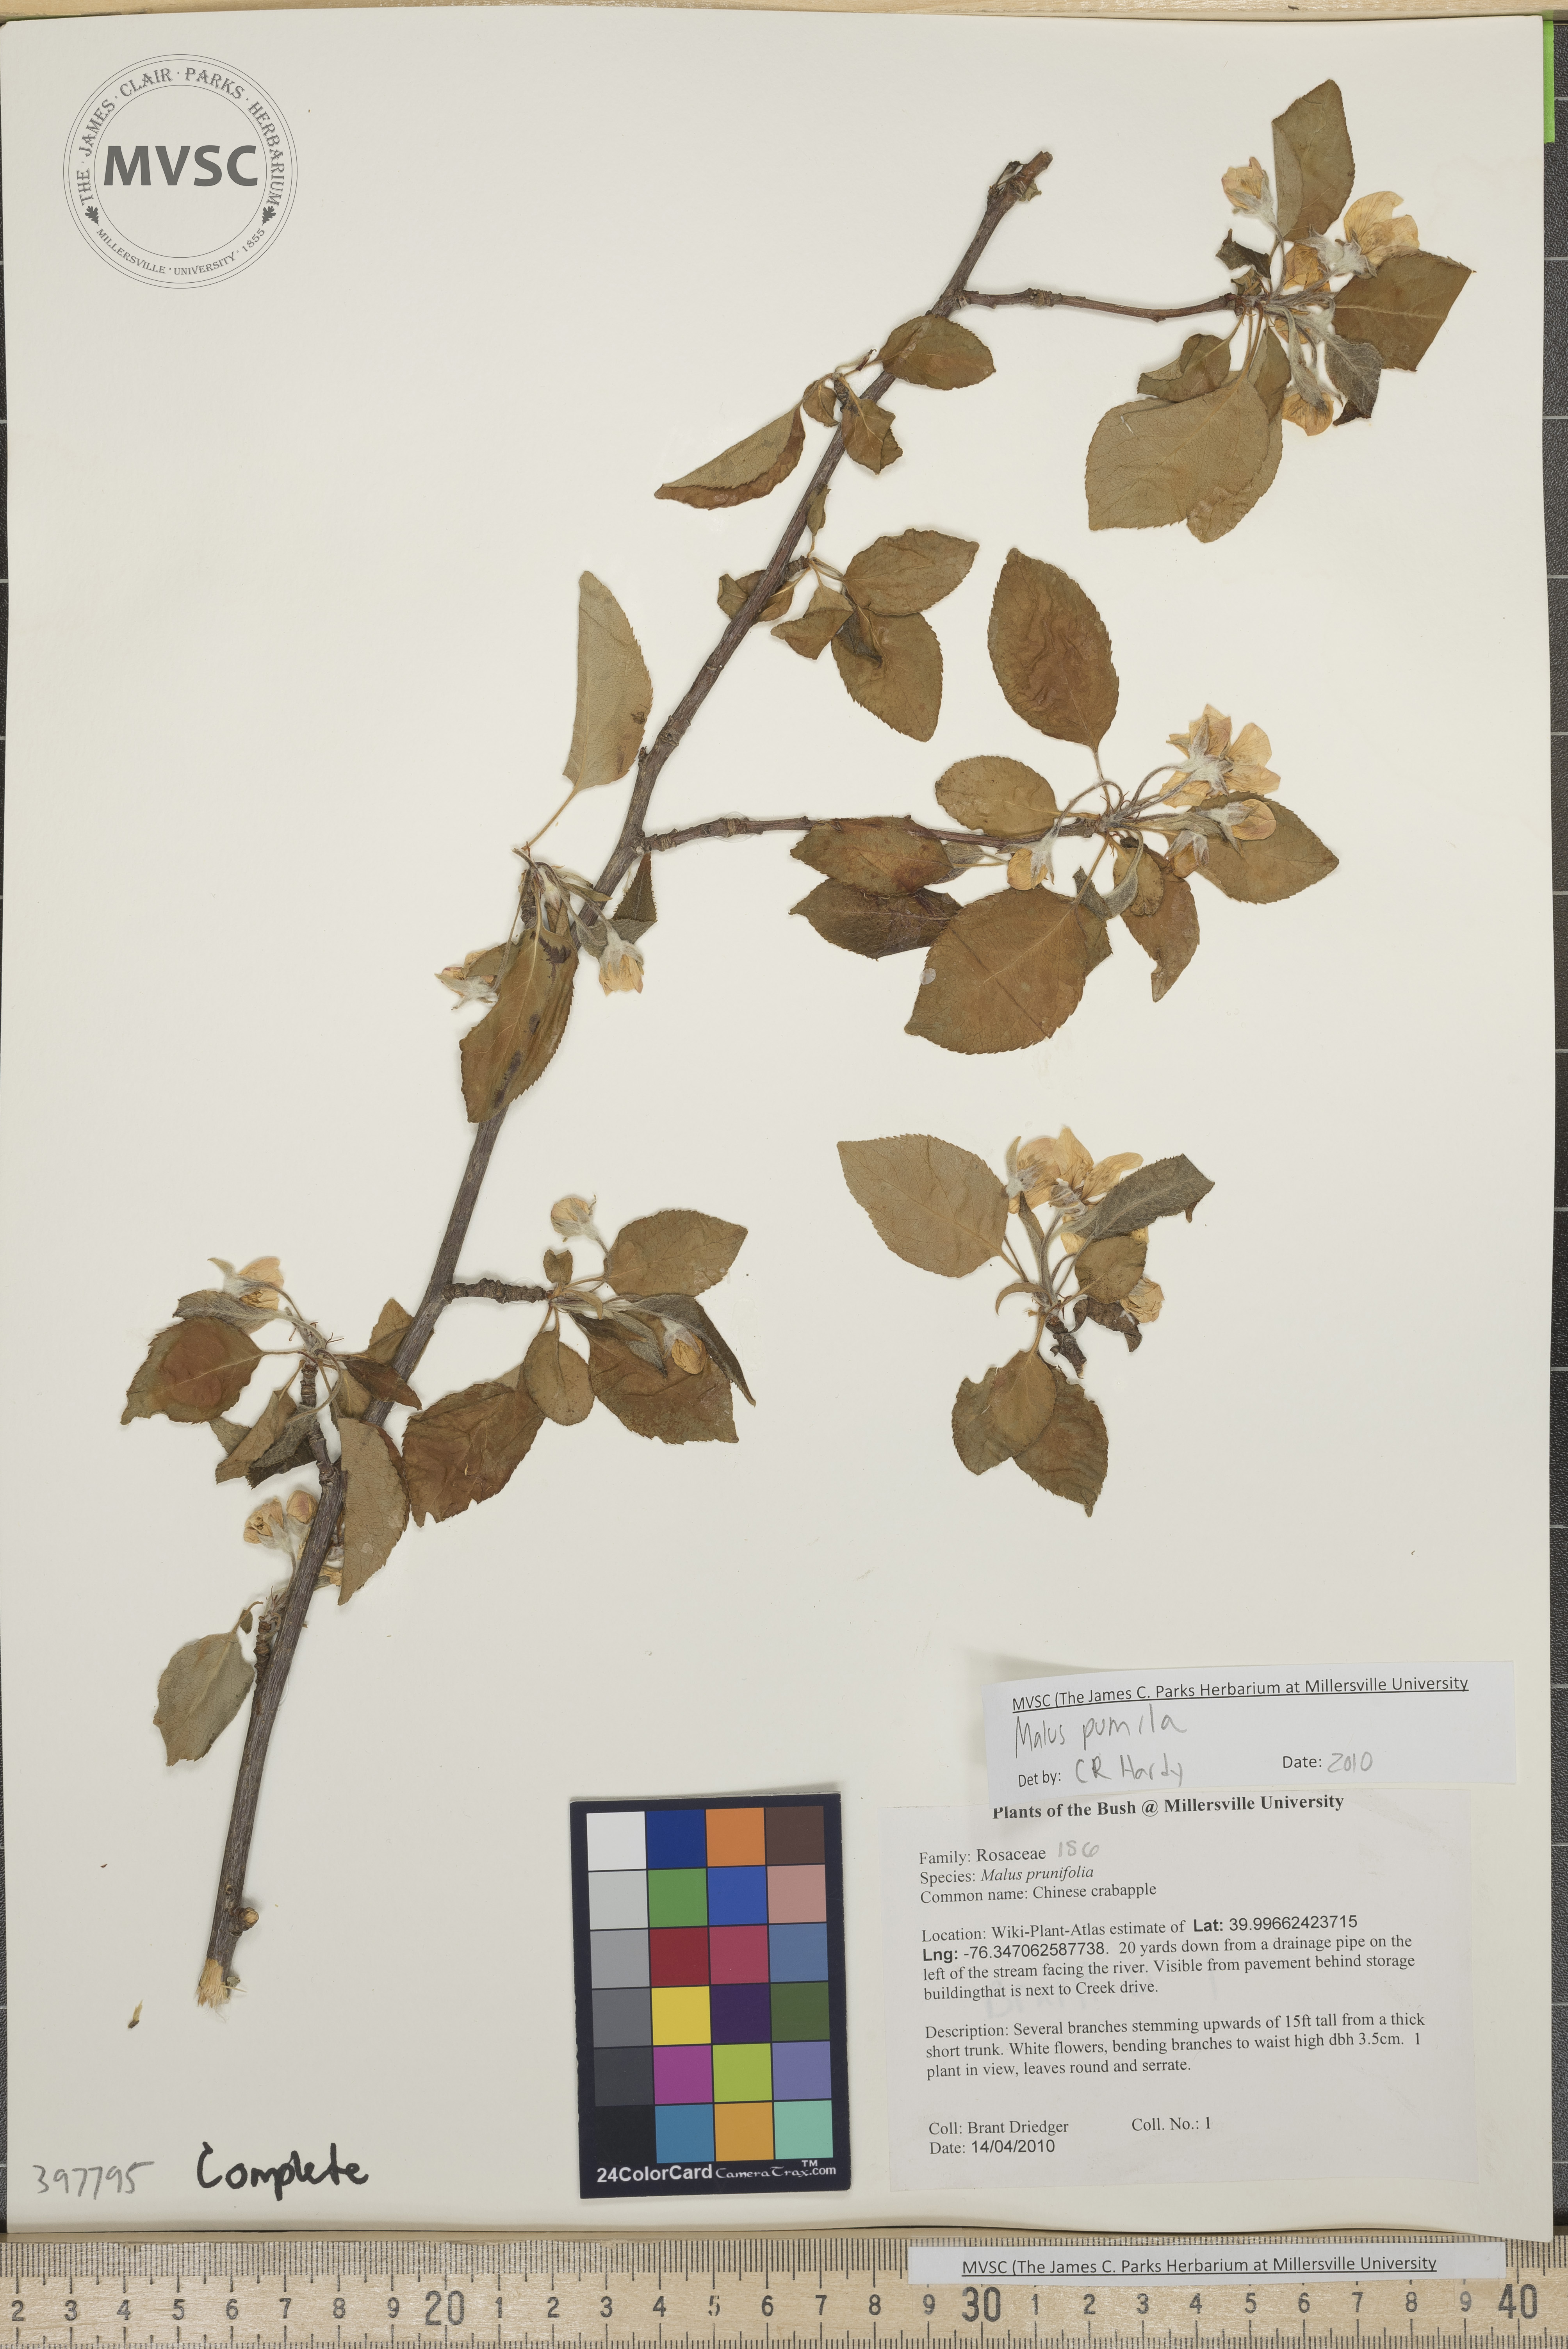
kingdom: Plantae
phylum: Tracheophyta
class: Magnoliopsida
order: Rosales
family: Rosaceae
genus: Malus
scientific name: Malus domestica
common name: Apple
